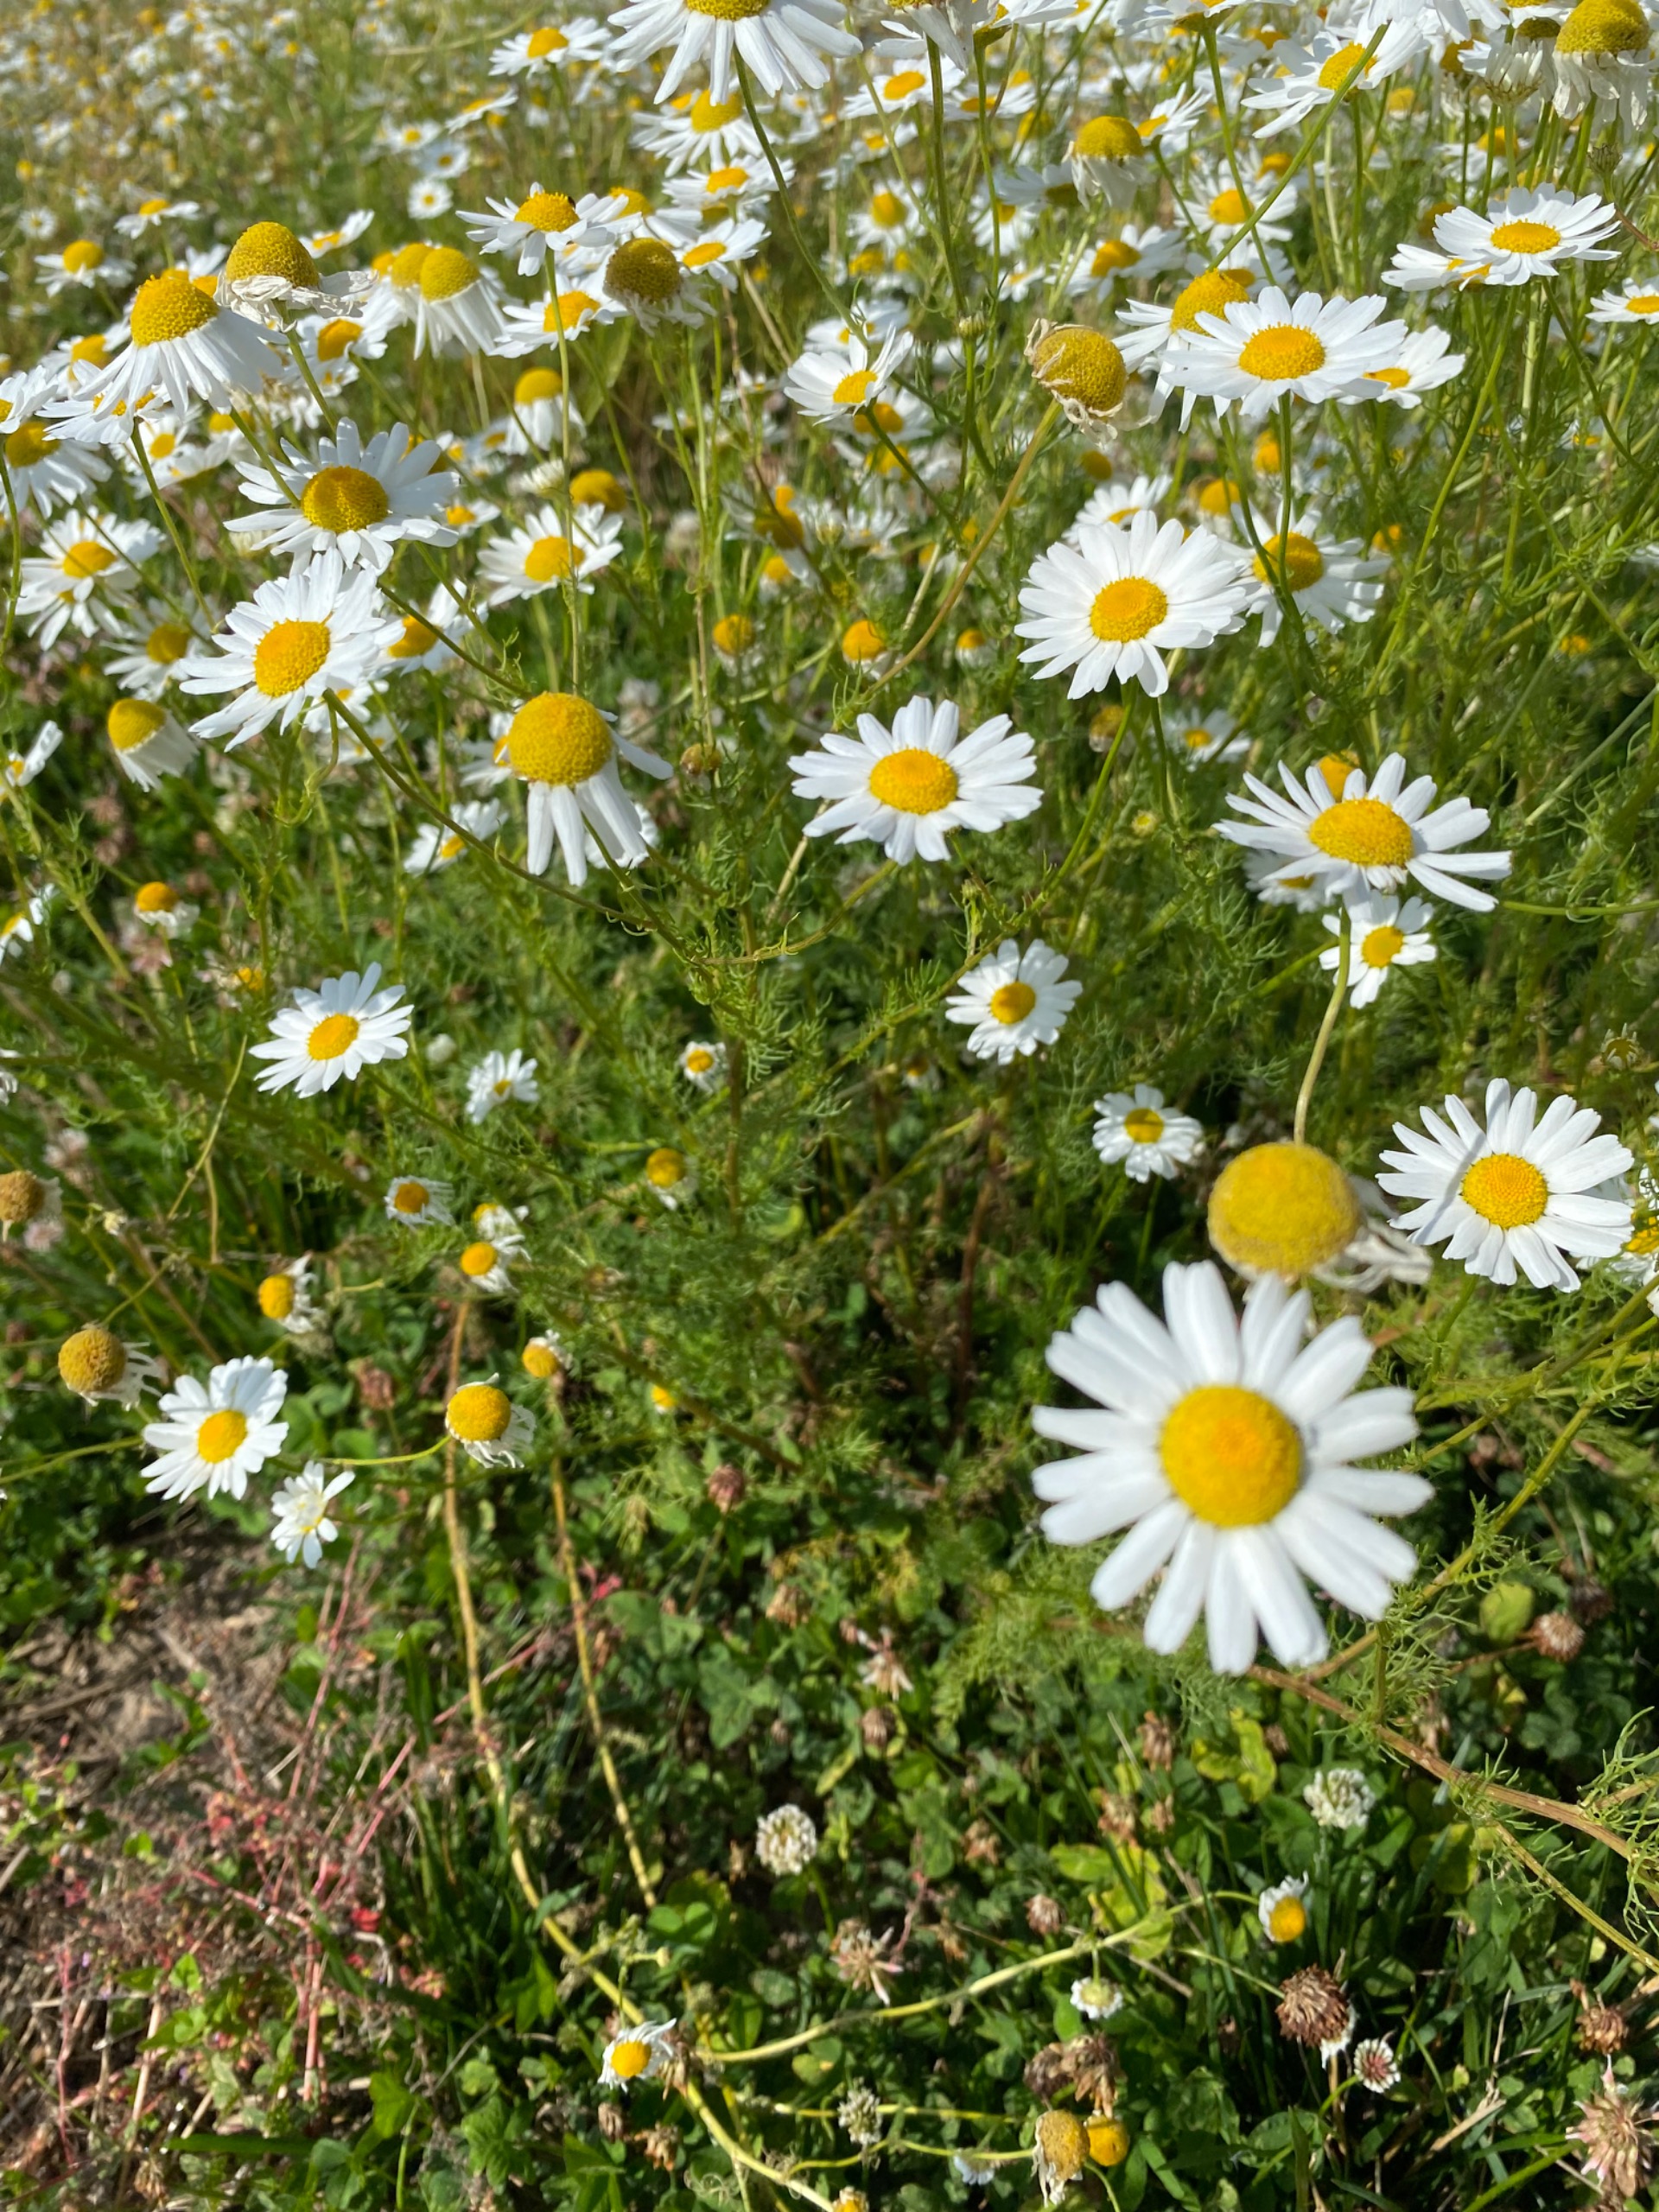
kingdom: Plantae
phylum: Tracheophyta
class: Magnoliopsida
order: Asterales
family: Asteraceae
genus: Tripleurospermum
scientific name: Tripleurospermum inodorum
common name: Lugtløs kamille
